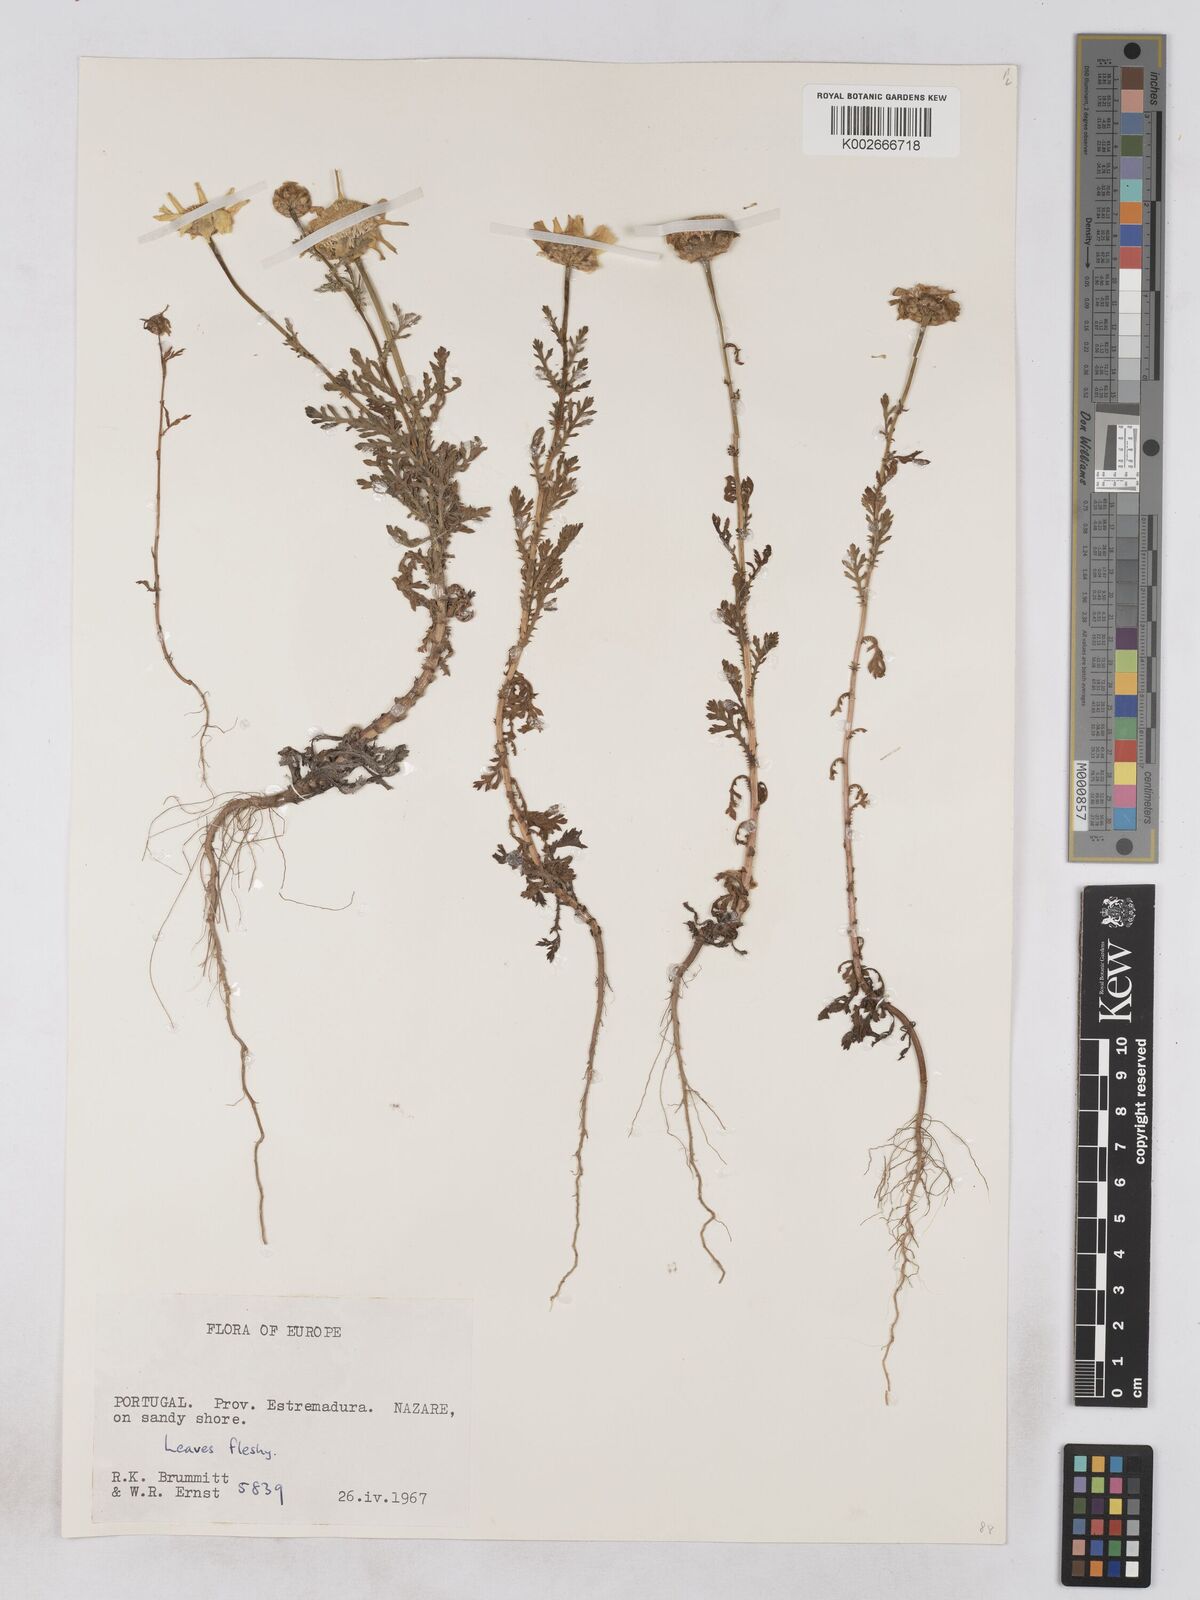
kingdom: Plantae
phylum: Tracheophyta
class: Magnoliopsida
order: Asterales
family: Asteraceae
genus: Glebionis
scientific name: Glebionis coronaria
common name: Crowndaisy
